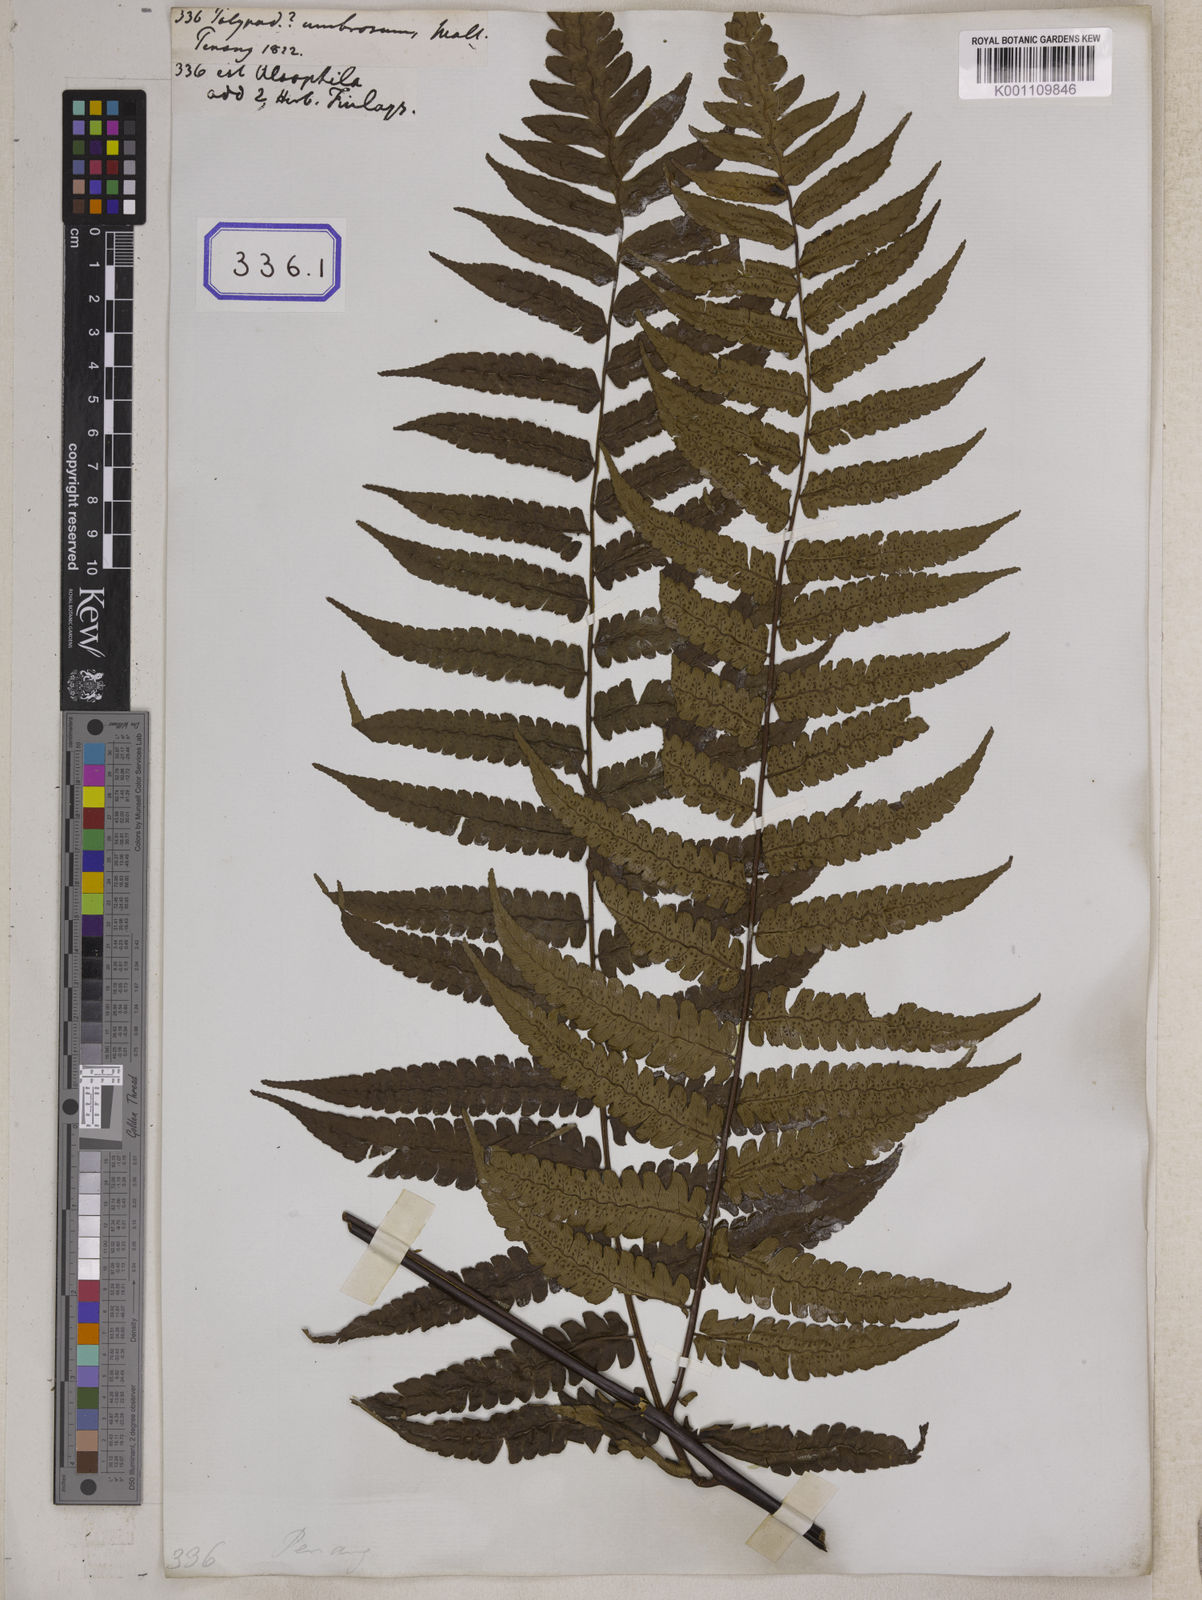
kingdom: Plantae
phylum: Tracheophyta
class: Polypodiopsida
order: Cyatheales
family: Cyatheaceae
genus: Gymnosphaera
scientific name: Gymnosphaera gigantea
